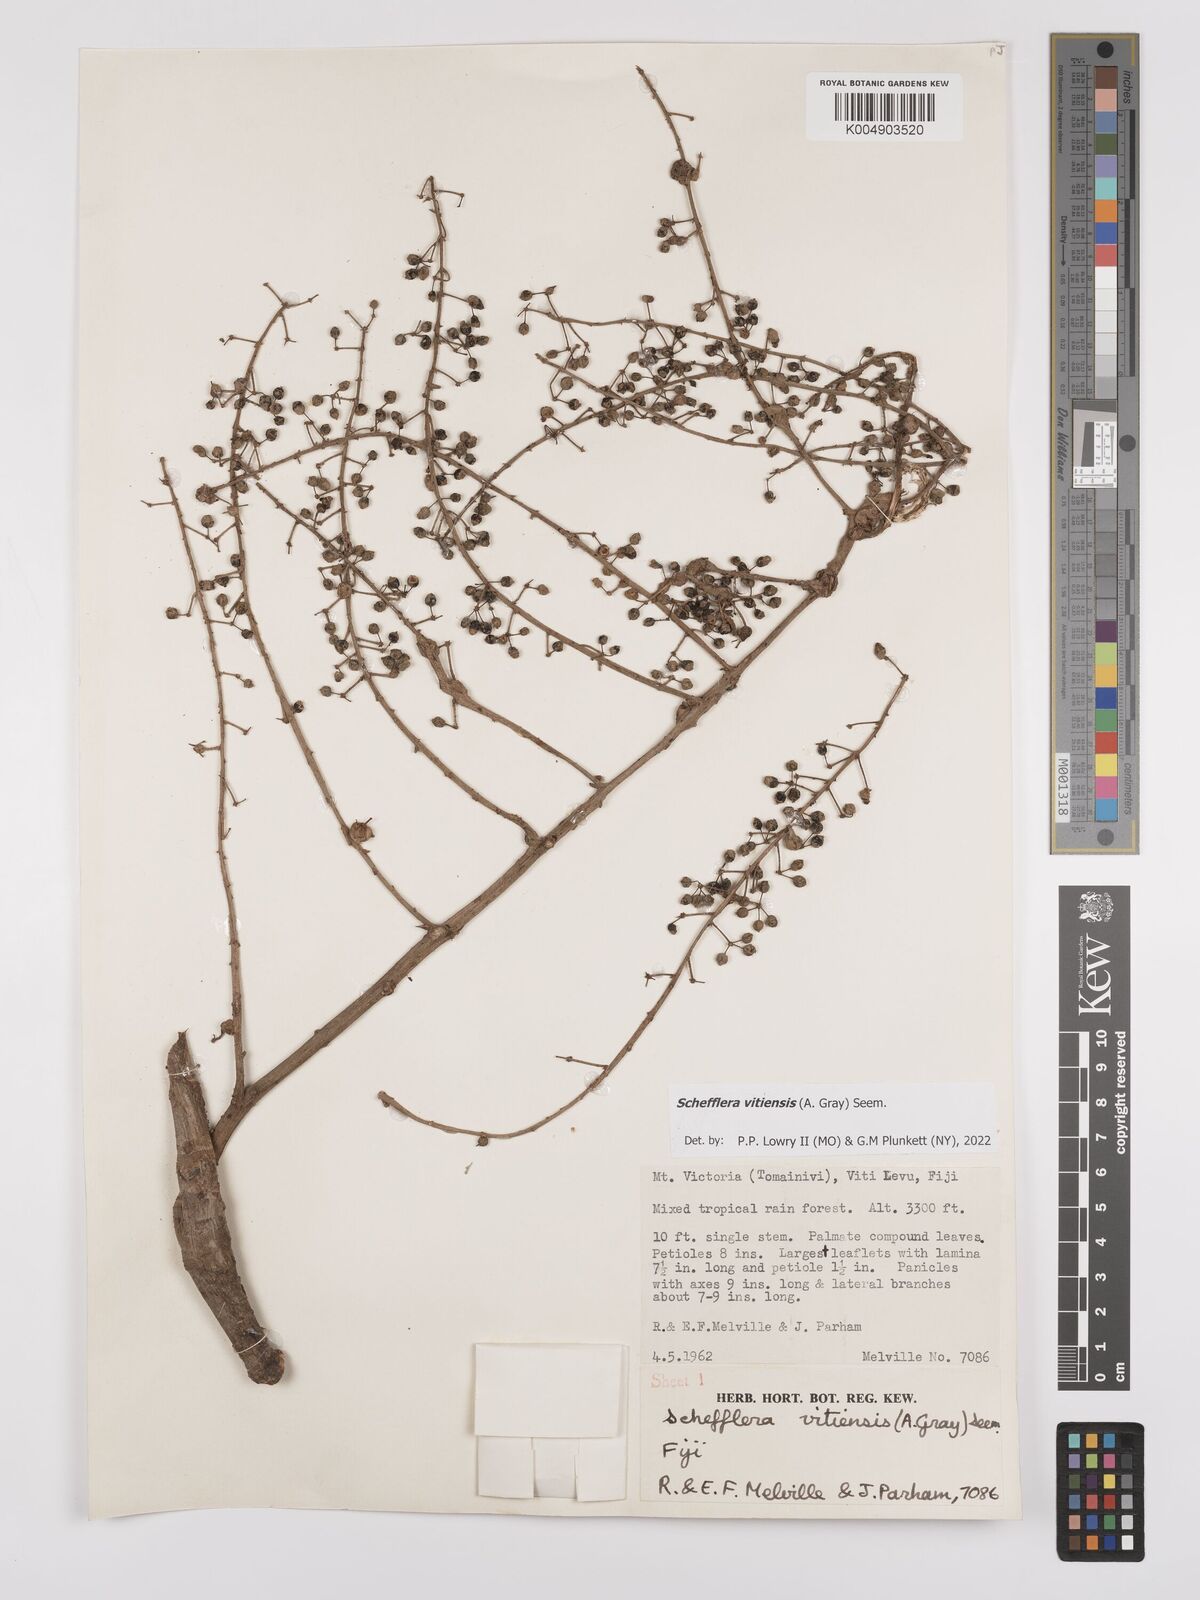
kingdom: Plantae
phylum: Tracheophyta
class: Magnoliopsida
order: Apiales
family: Araliaceae
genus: Schefflera
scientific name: Schefflera vitiensis
